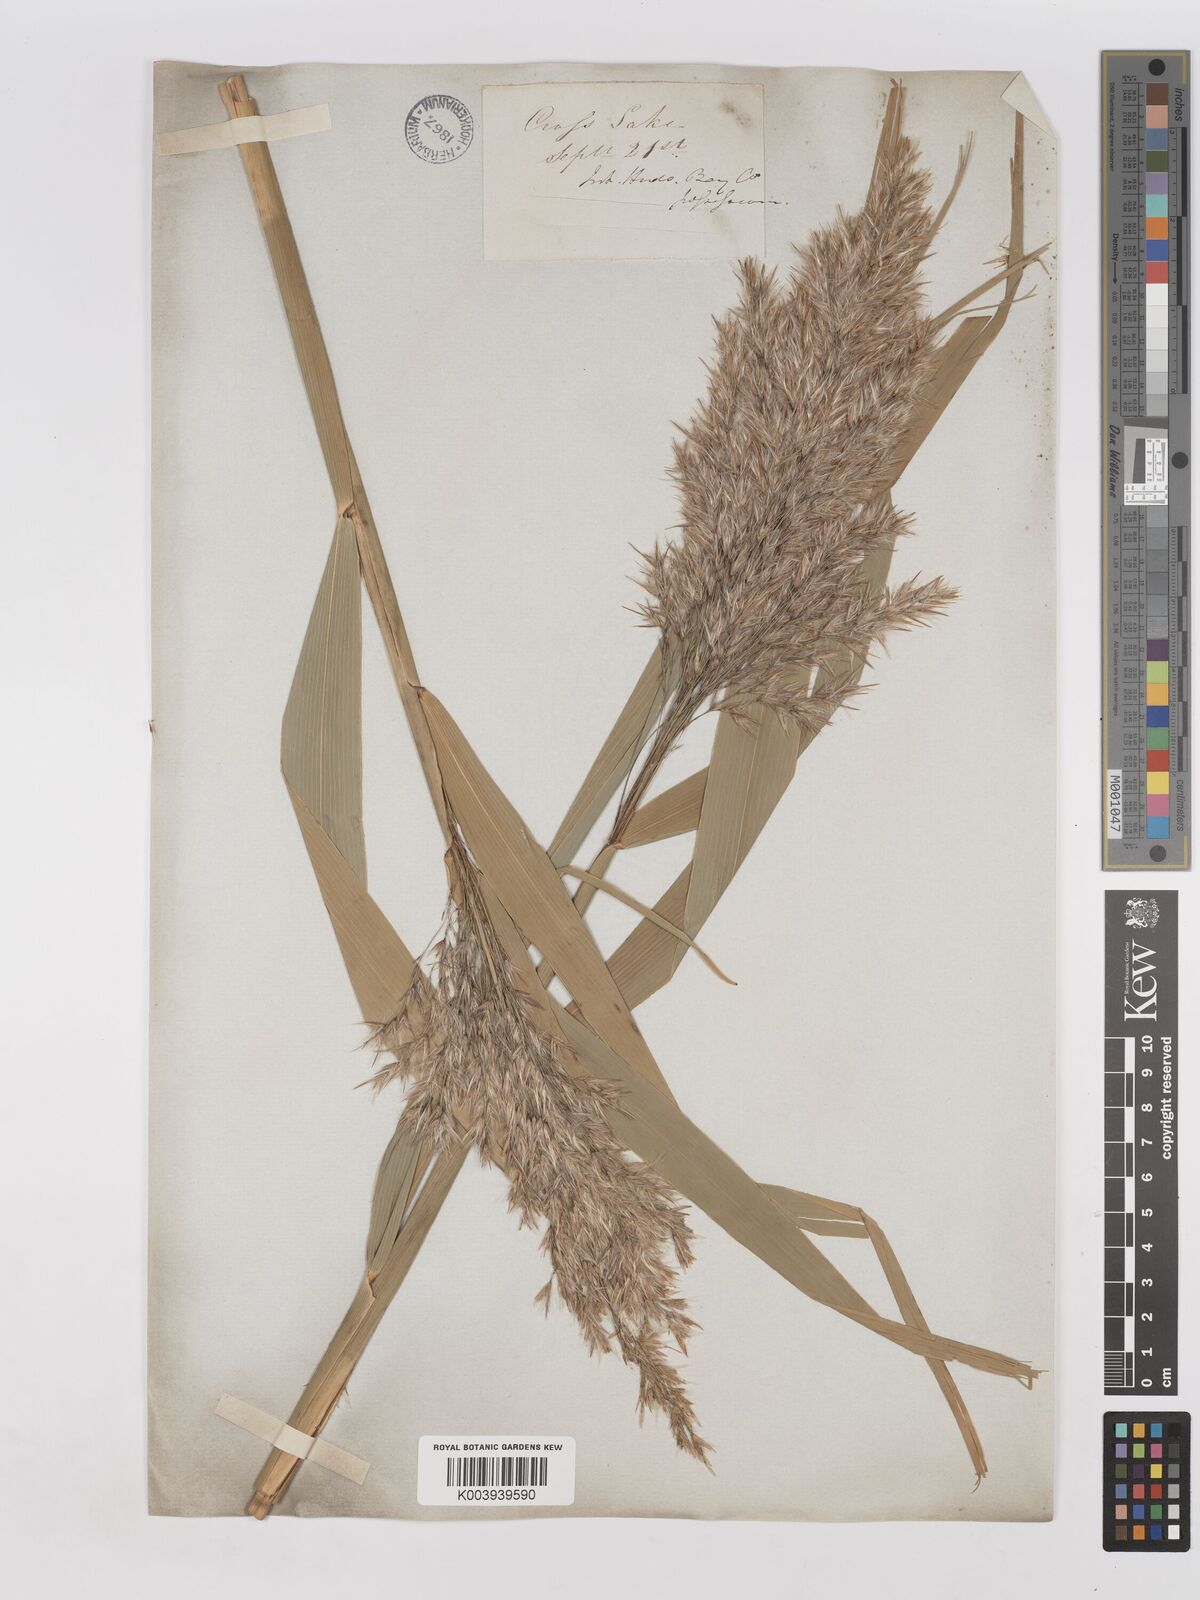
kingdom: Plantae
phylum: Tracheophyta
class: Liliopsida
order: Poales
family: Poaceae
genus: Phragmites
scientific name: Phragmites australis
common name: Common reed
